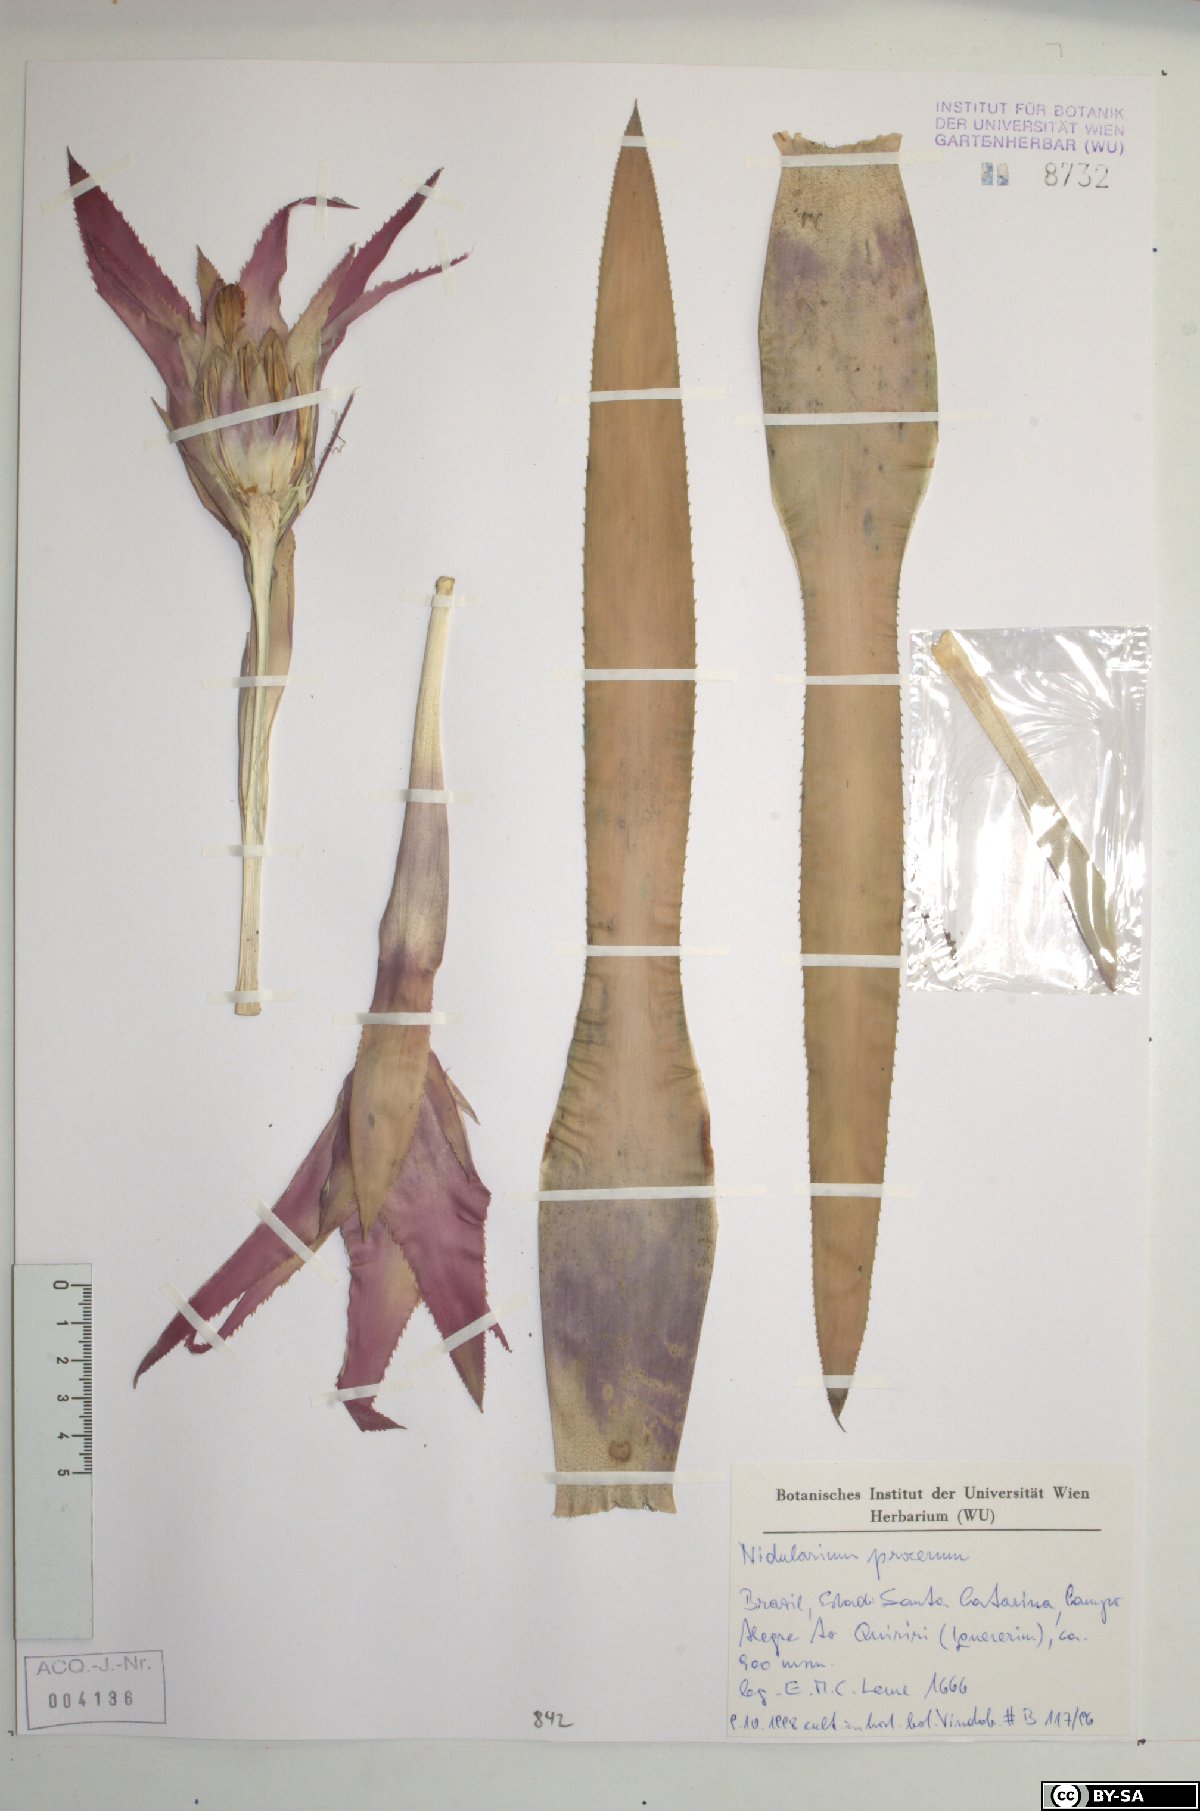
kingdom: Plantae
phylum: Tracheophyta
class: Liliopsida
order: Poales
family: Bromeliaceae
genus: Nidularium
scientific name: Nidularium procerum
